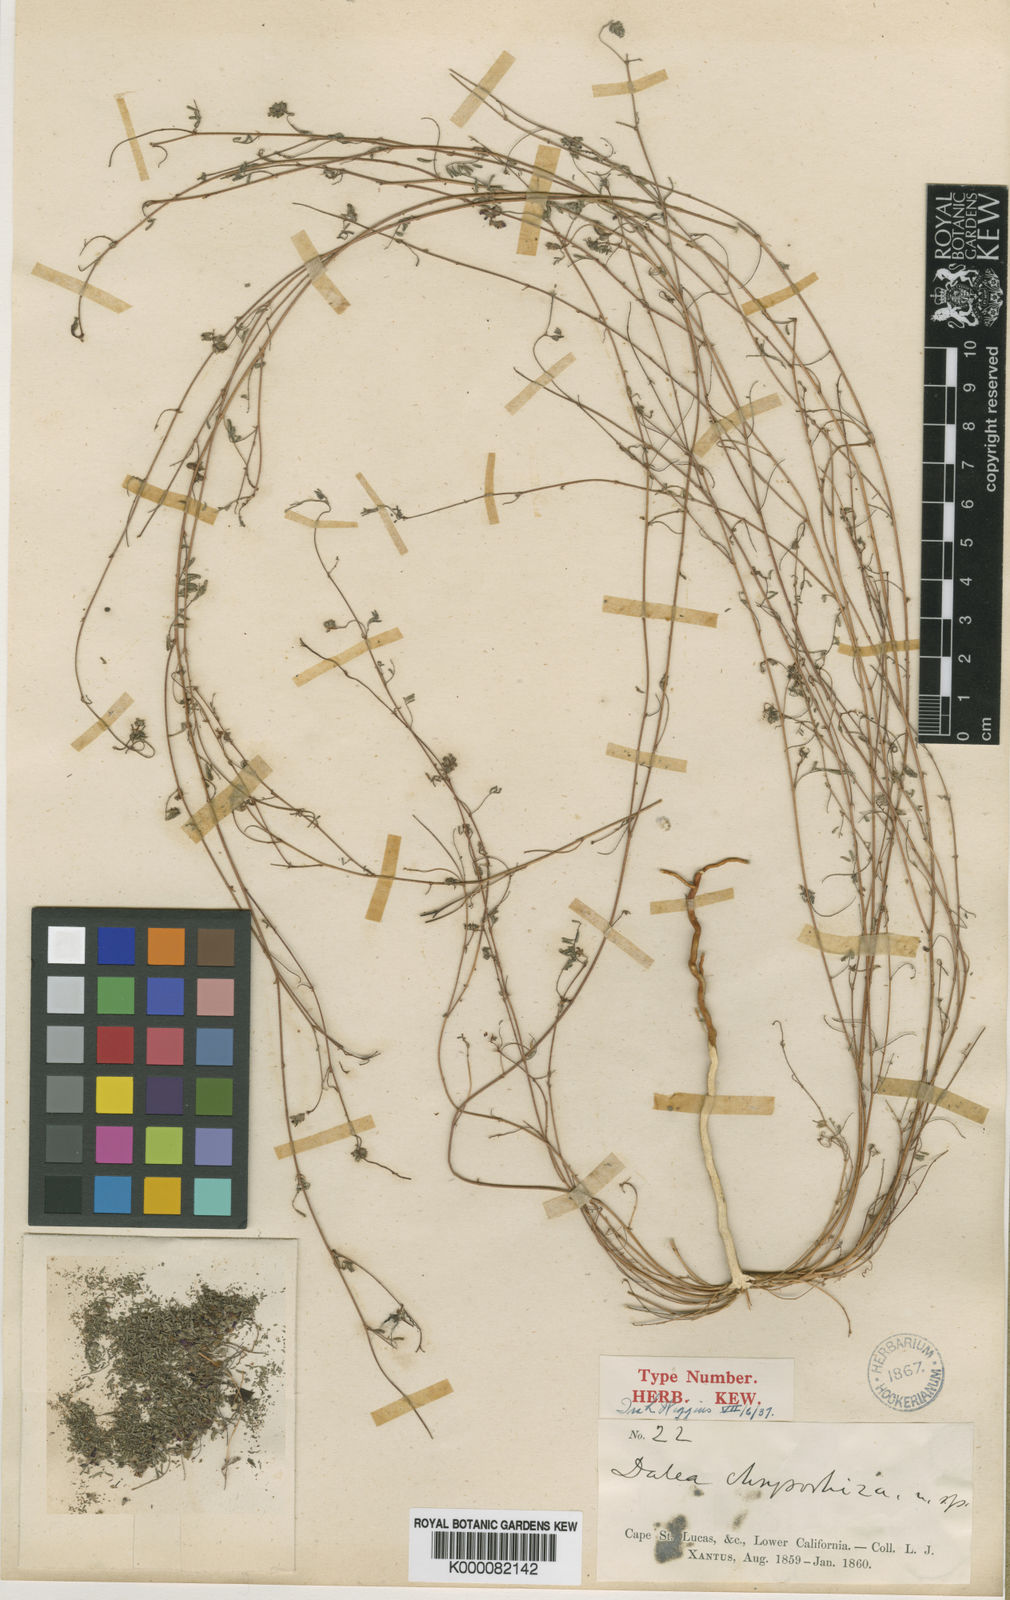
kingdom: Plantae
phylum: Tracheophyta
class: Magnoliopsida
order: Fabales
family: Fabaceae
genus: Marina
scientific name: Marina chrysorrhiza
